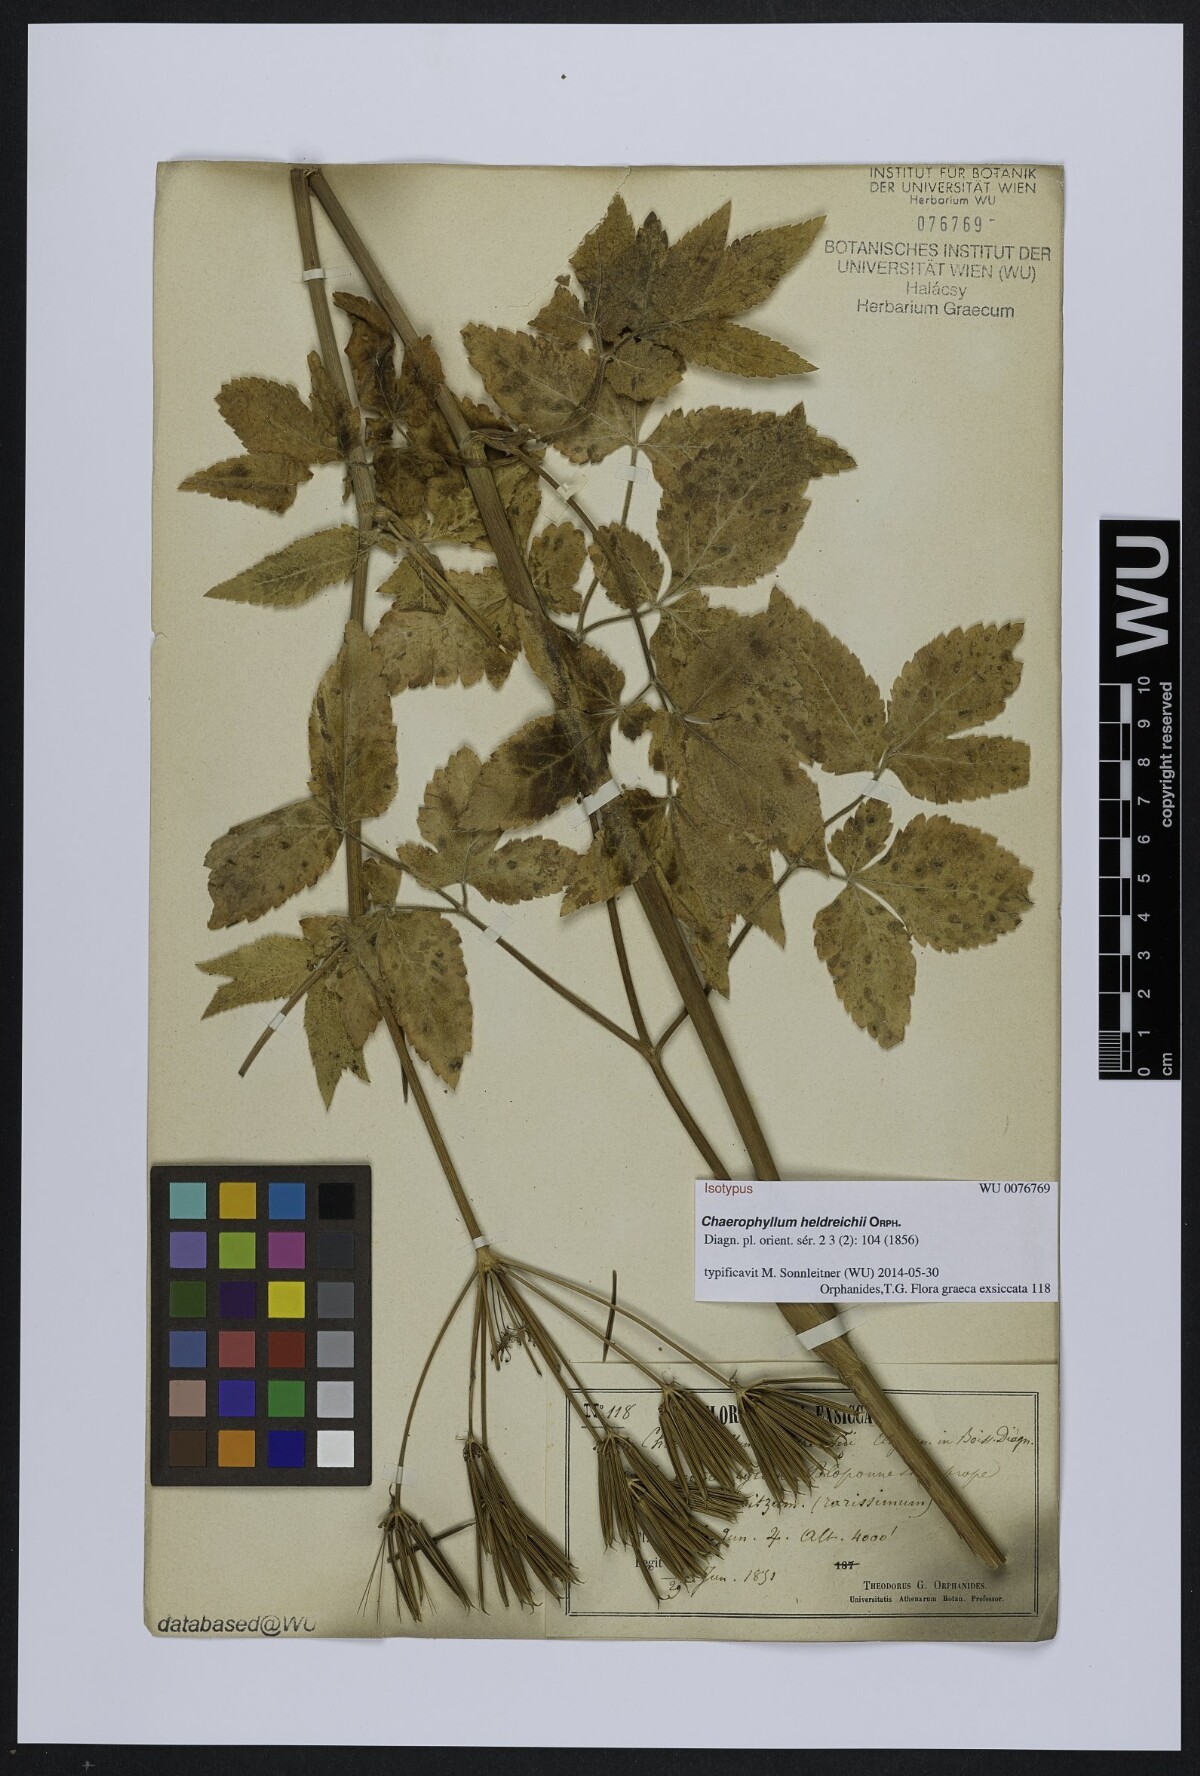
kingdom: Plantae
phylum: Tracheophyta
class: Magnoliopsida
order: Apiales
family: Apiaceae
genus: Chaerophyllum
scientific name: Chaerophyllum heldreichii
